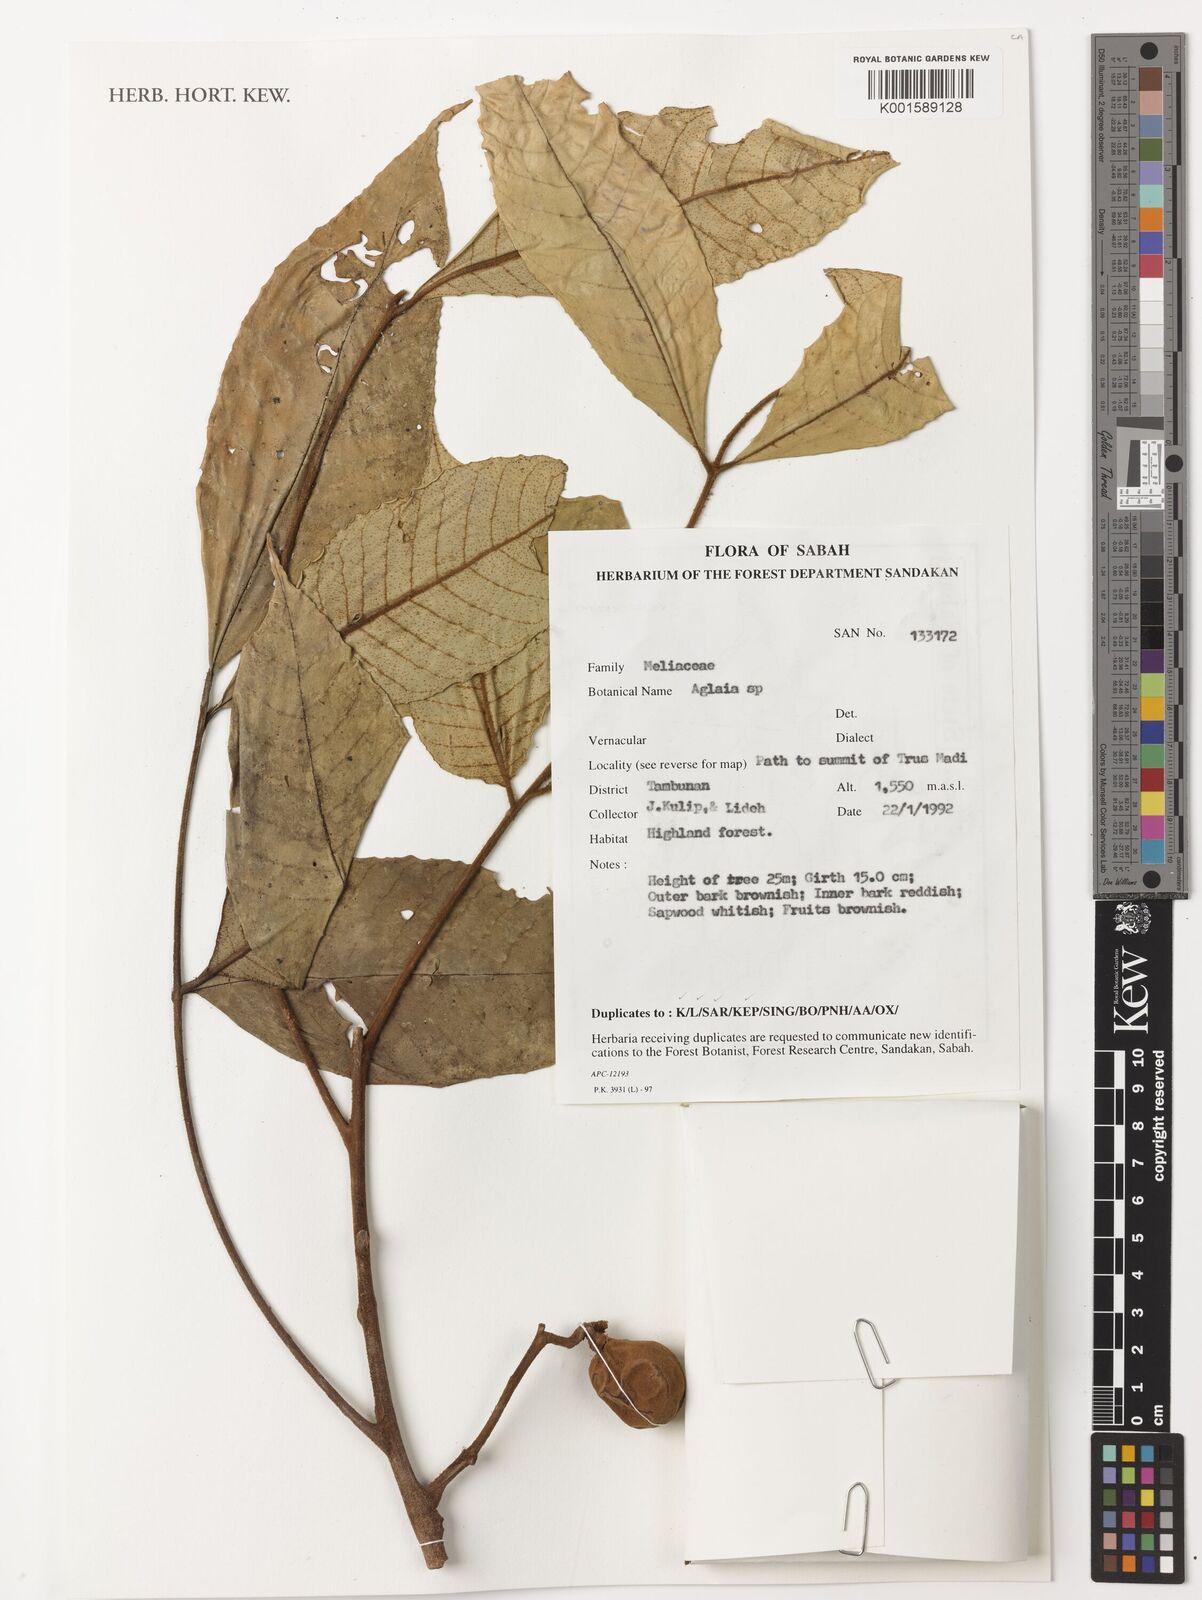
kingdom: Plantae
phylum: Tracheophyta
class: Magnoliopsida
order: Sapindales
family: Meliaceae
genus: Aglaia
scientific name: Aglaia
